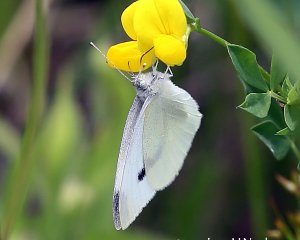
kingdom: Animalia
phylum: Arthropoda
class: Insecta
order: Lepidoptera
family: Pieridae
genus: Pieris
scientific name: Pieris rapae
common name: Cabbage White
